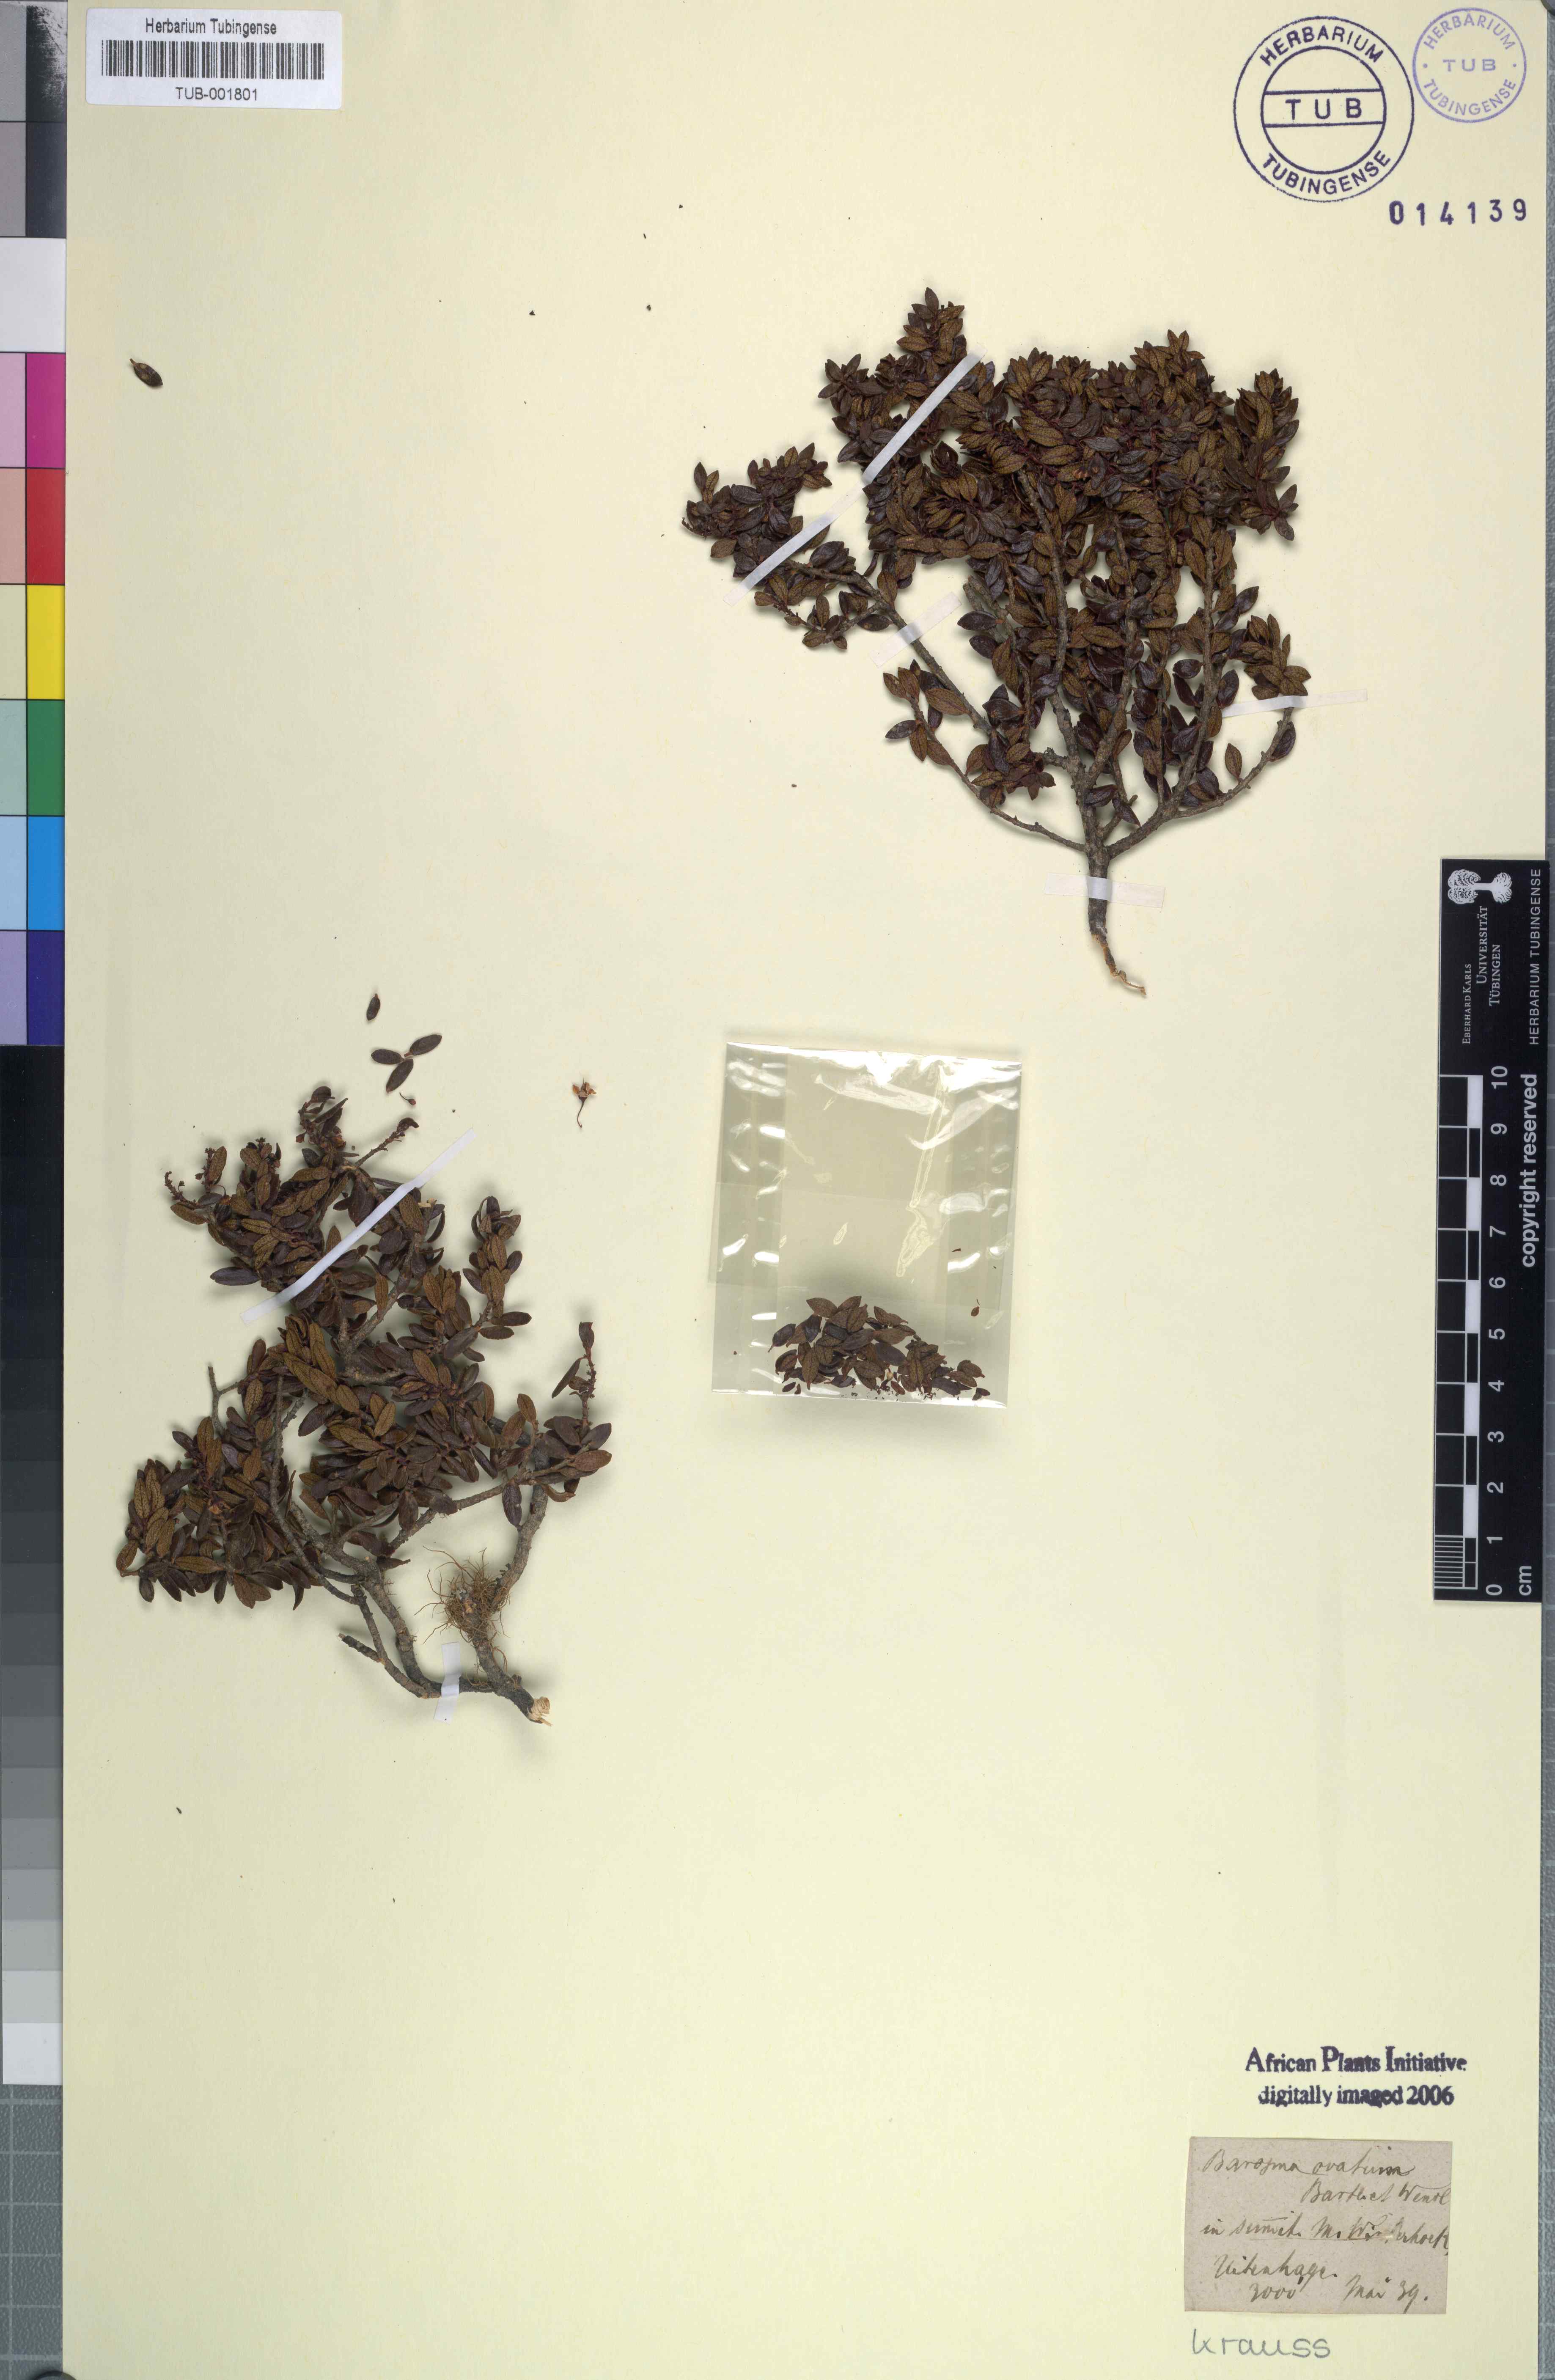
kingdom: Plantae
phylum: Tracheophyta
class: Magnoliopsida
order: Sapindales
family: Rutaceae
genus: Agathosma
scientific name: Agathosma ovata
